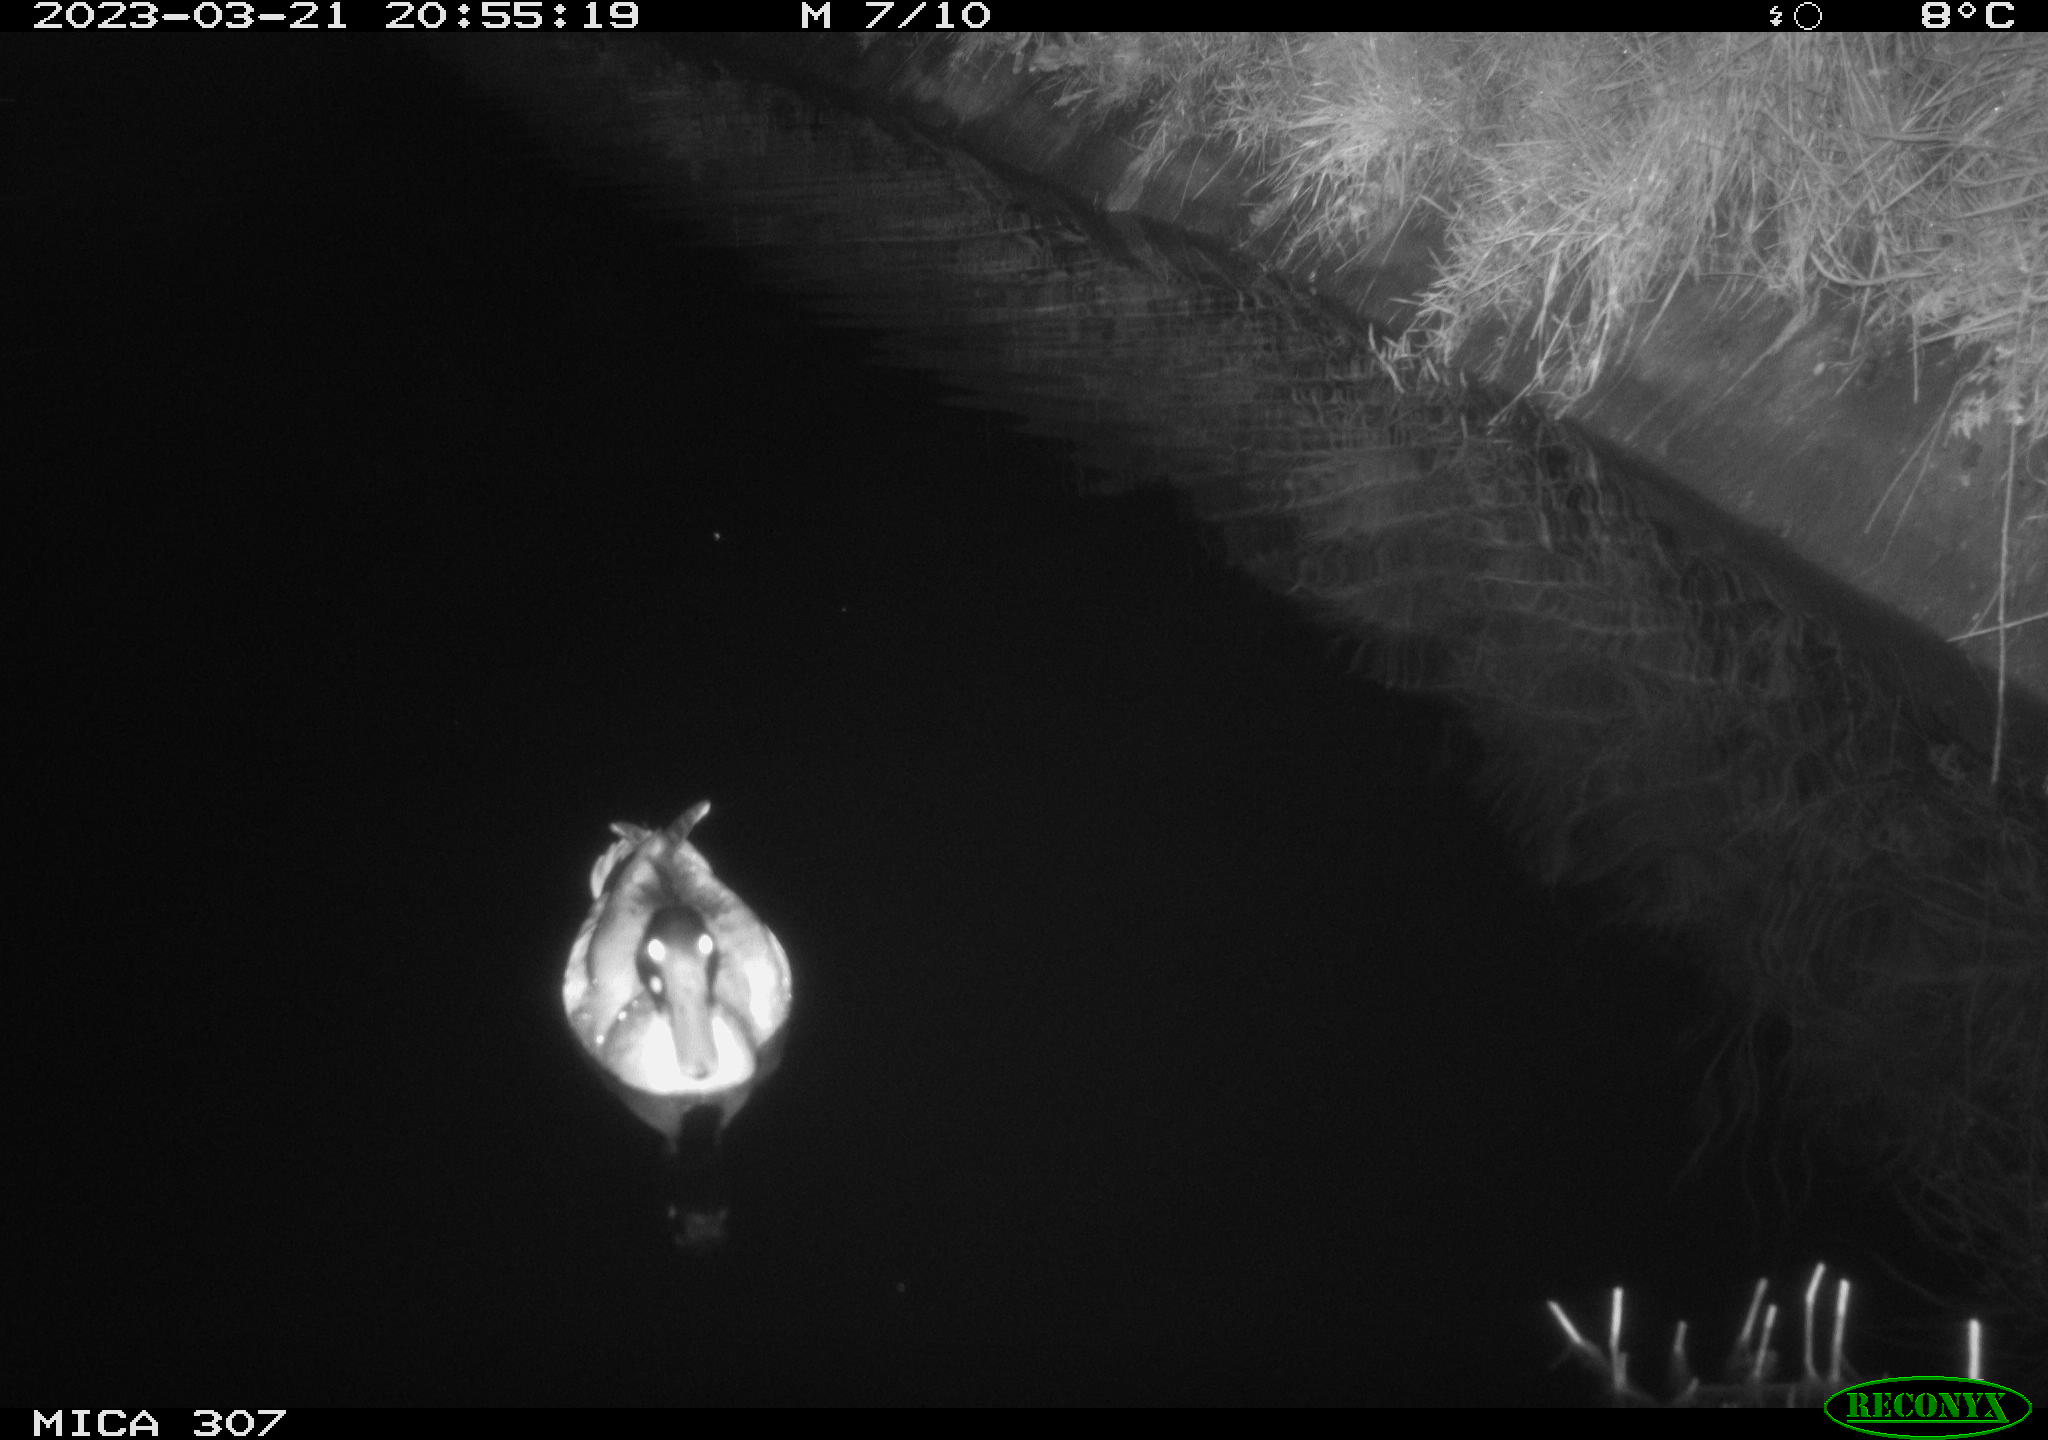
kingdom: Animalia
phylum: Chordata
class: Aves
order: Anseriformes
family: Anatidae
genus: Anas
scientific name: Anas
